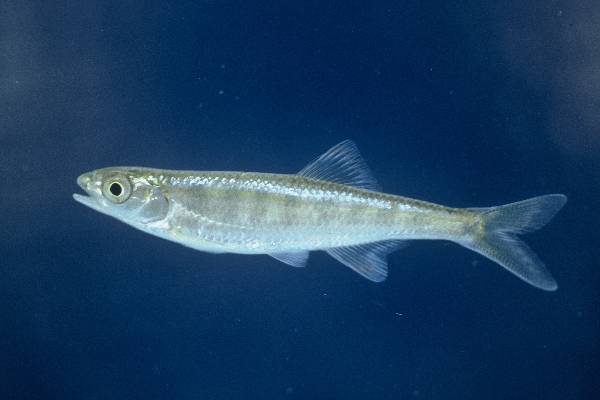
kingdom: Animalia
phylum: Chordata
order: Cypriniformes
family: Cyprinidae
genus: Opsaridium
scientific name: Opsaridium zambezense
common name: Barred minnow
